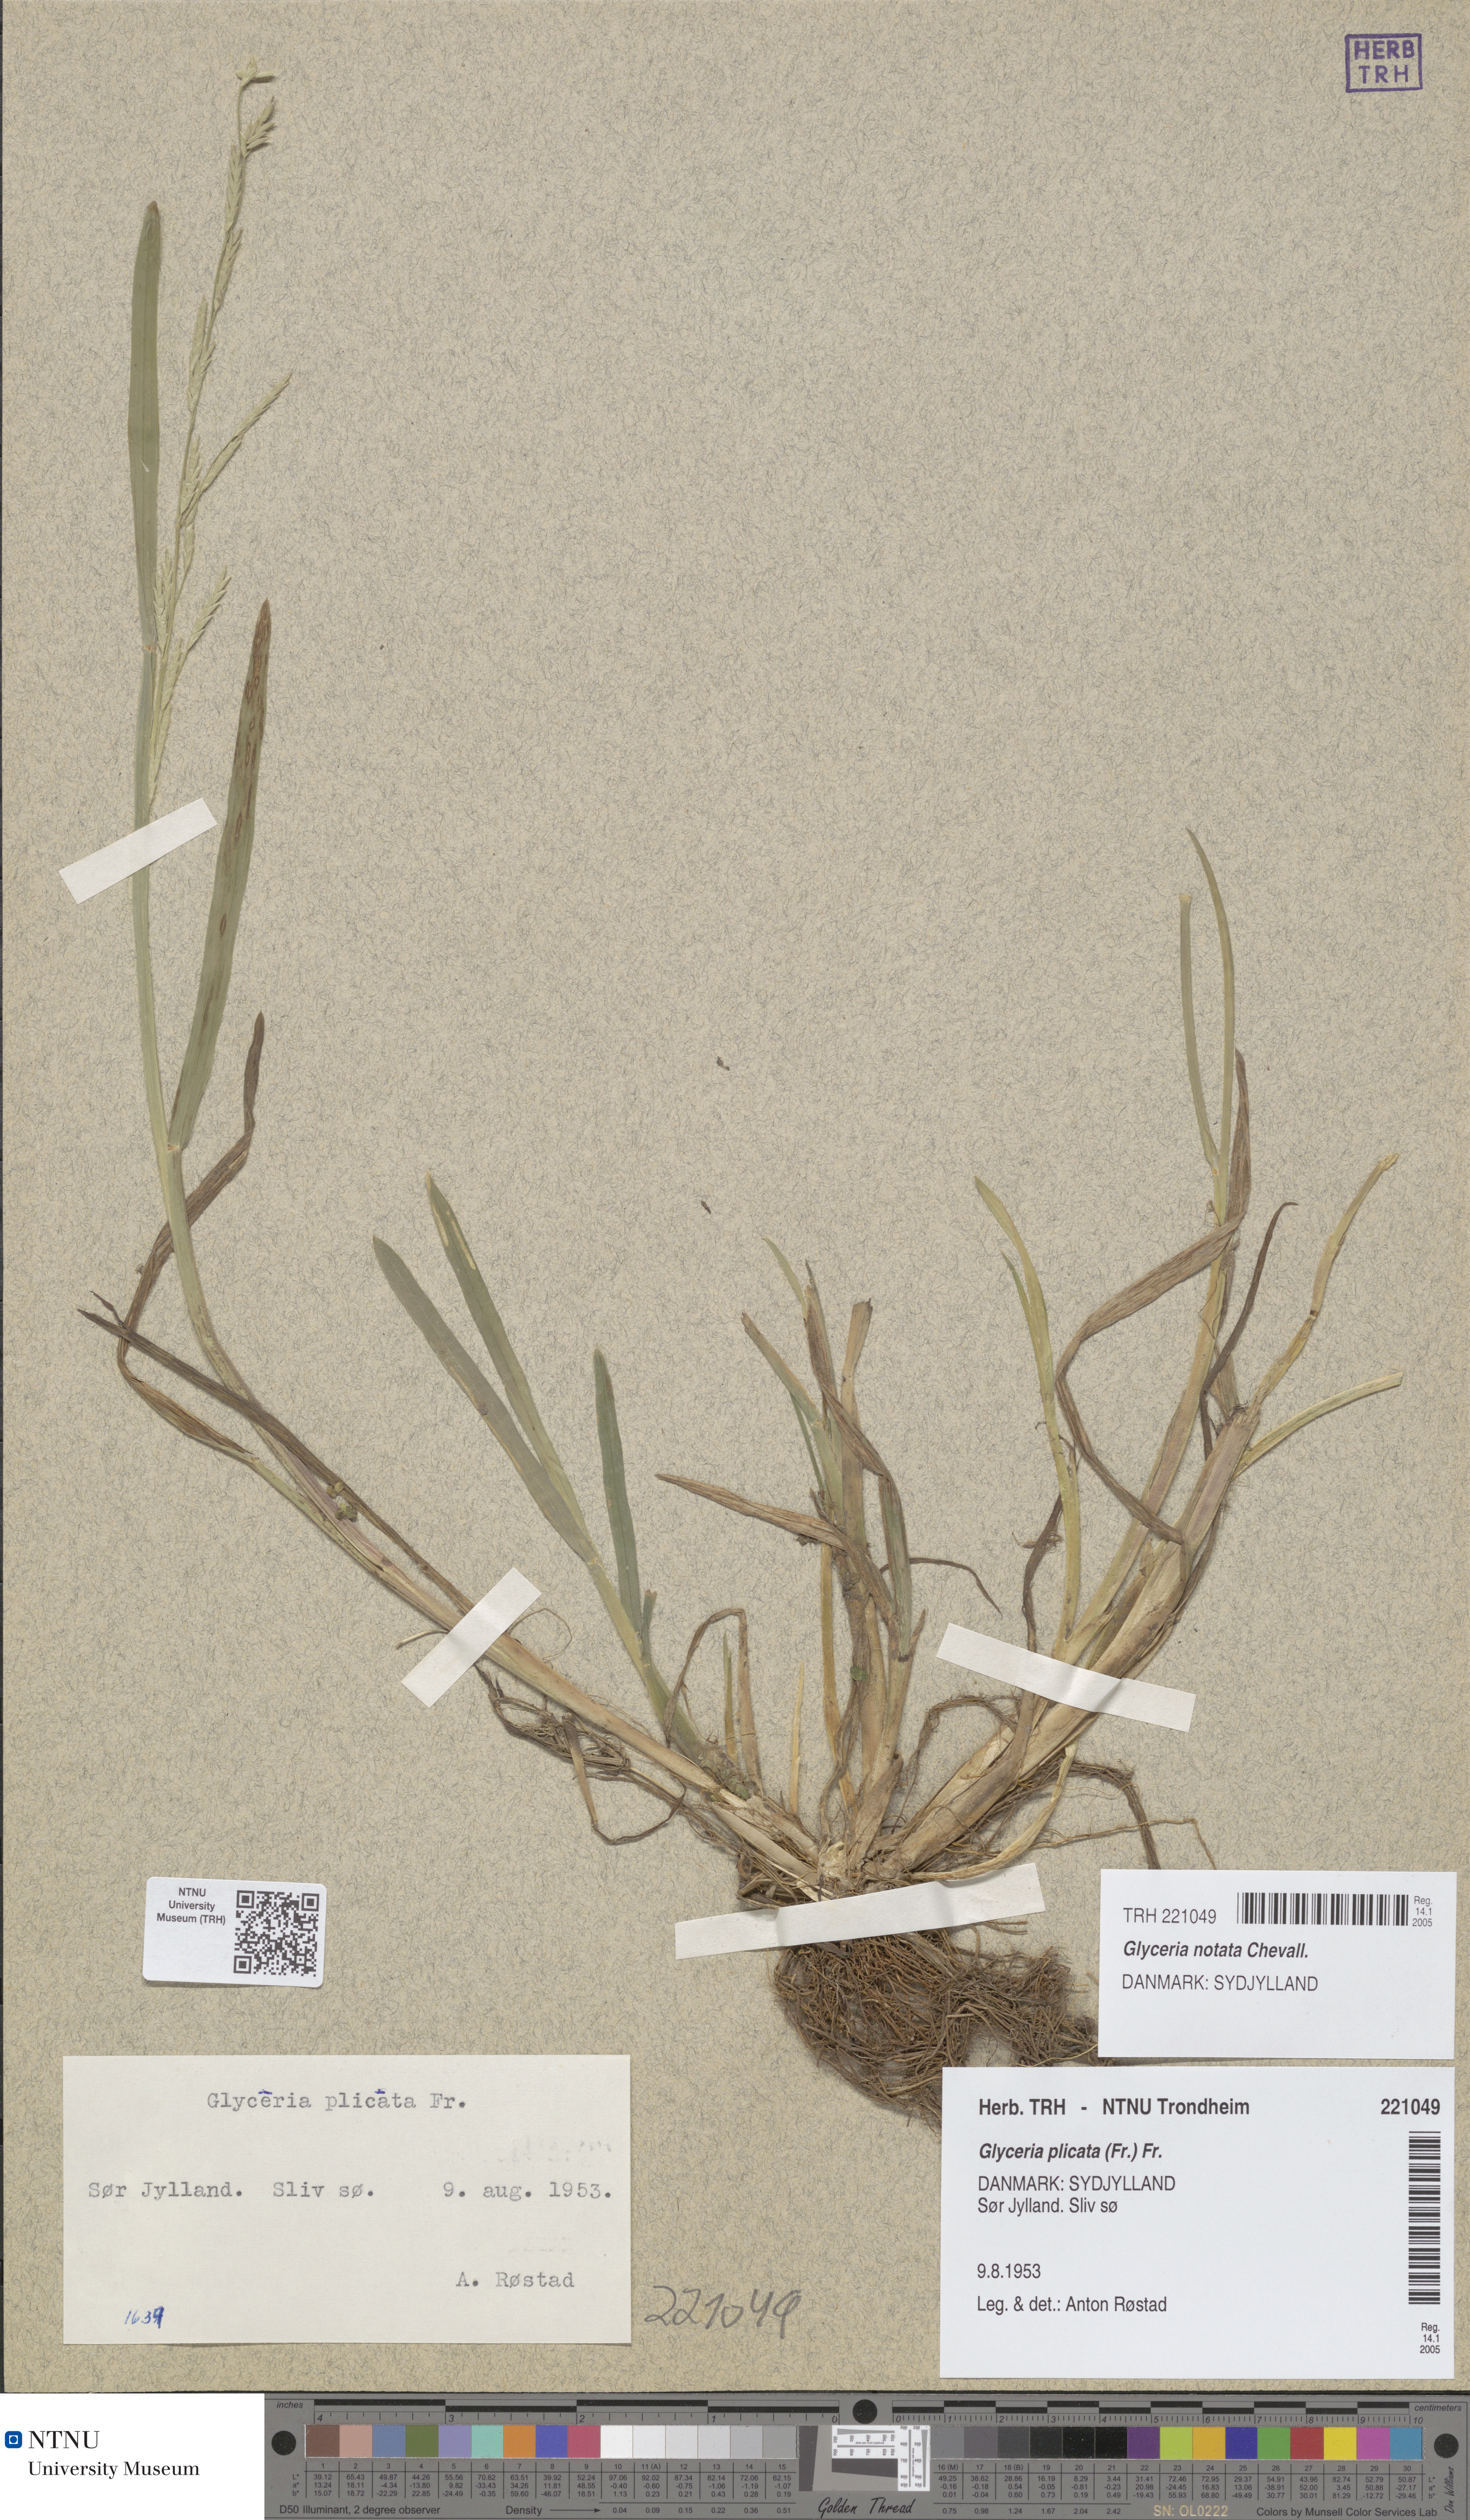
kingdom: Plantae
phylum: Tracheophyta
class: Liliopsida
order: Poales
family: Poaceae
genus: Glyceria
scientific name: Glyceria notata
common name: Plicate sweet-grass
